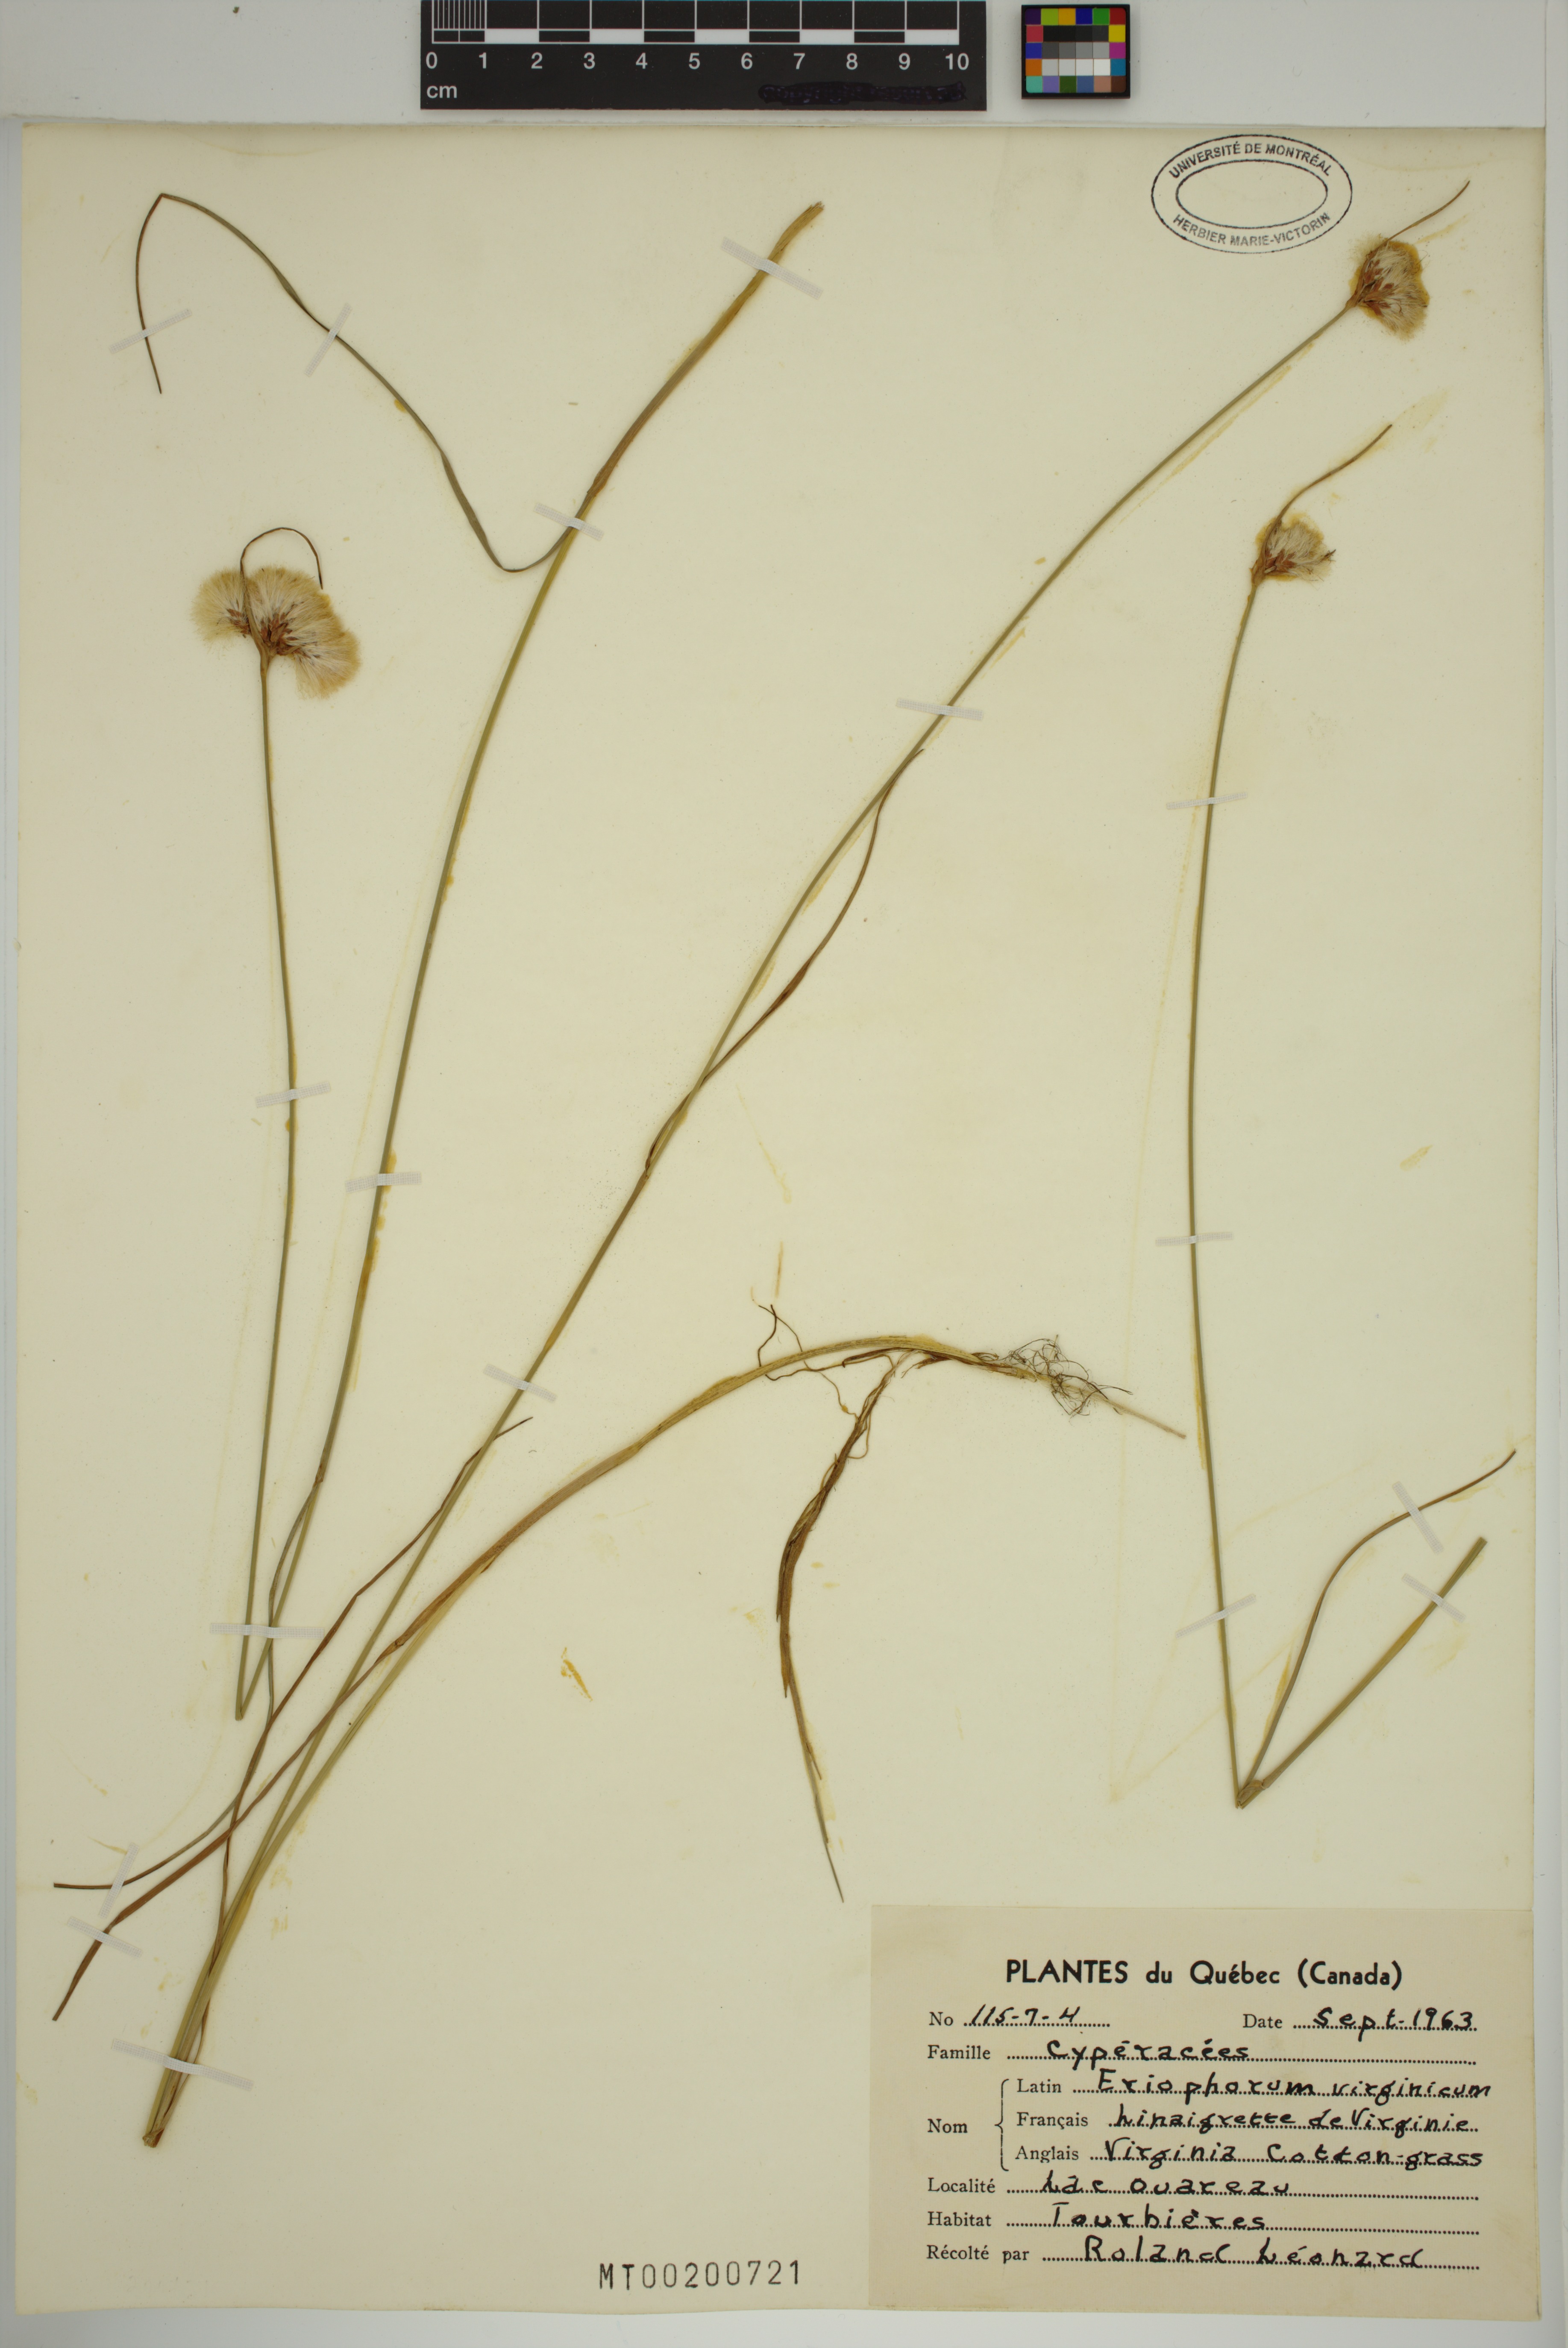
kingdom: Plantae
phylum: Tracheophyta
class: Liliopsida
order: Poales
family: Cyperaceae
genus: Eriophorum
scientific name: Eriophorum virginicum
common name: Tawny cottongrass
